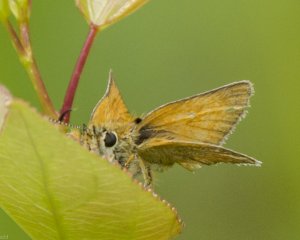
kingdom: Animalia
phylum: Arthropoda
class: Insecta
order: Lepidoptera
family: Hesperiidae
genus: Thymelicus
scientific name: Thymelicus lineola
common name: European Skipper
